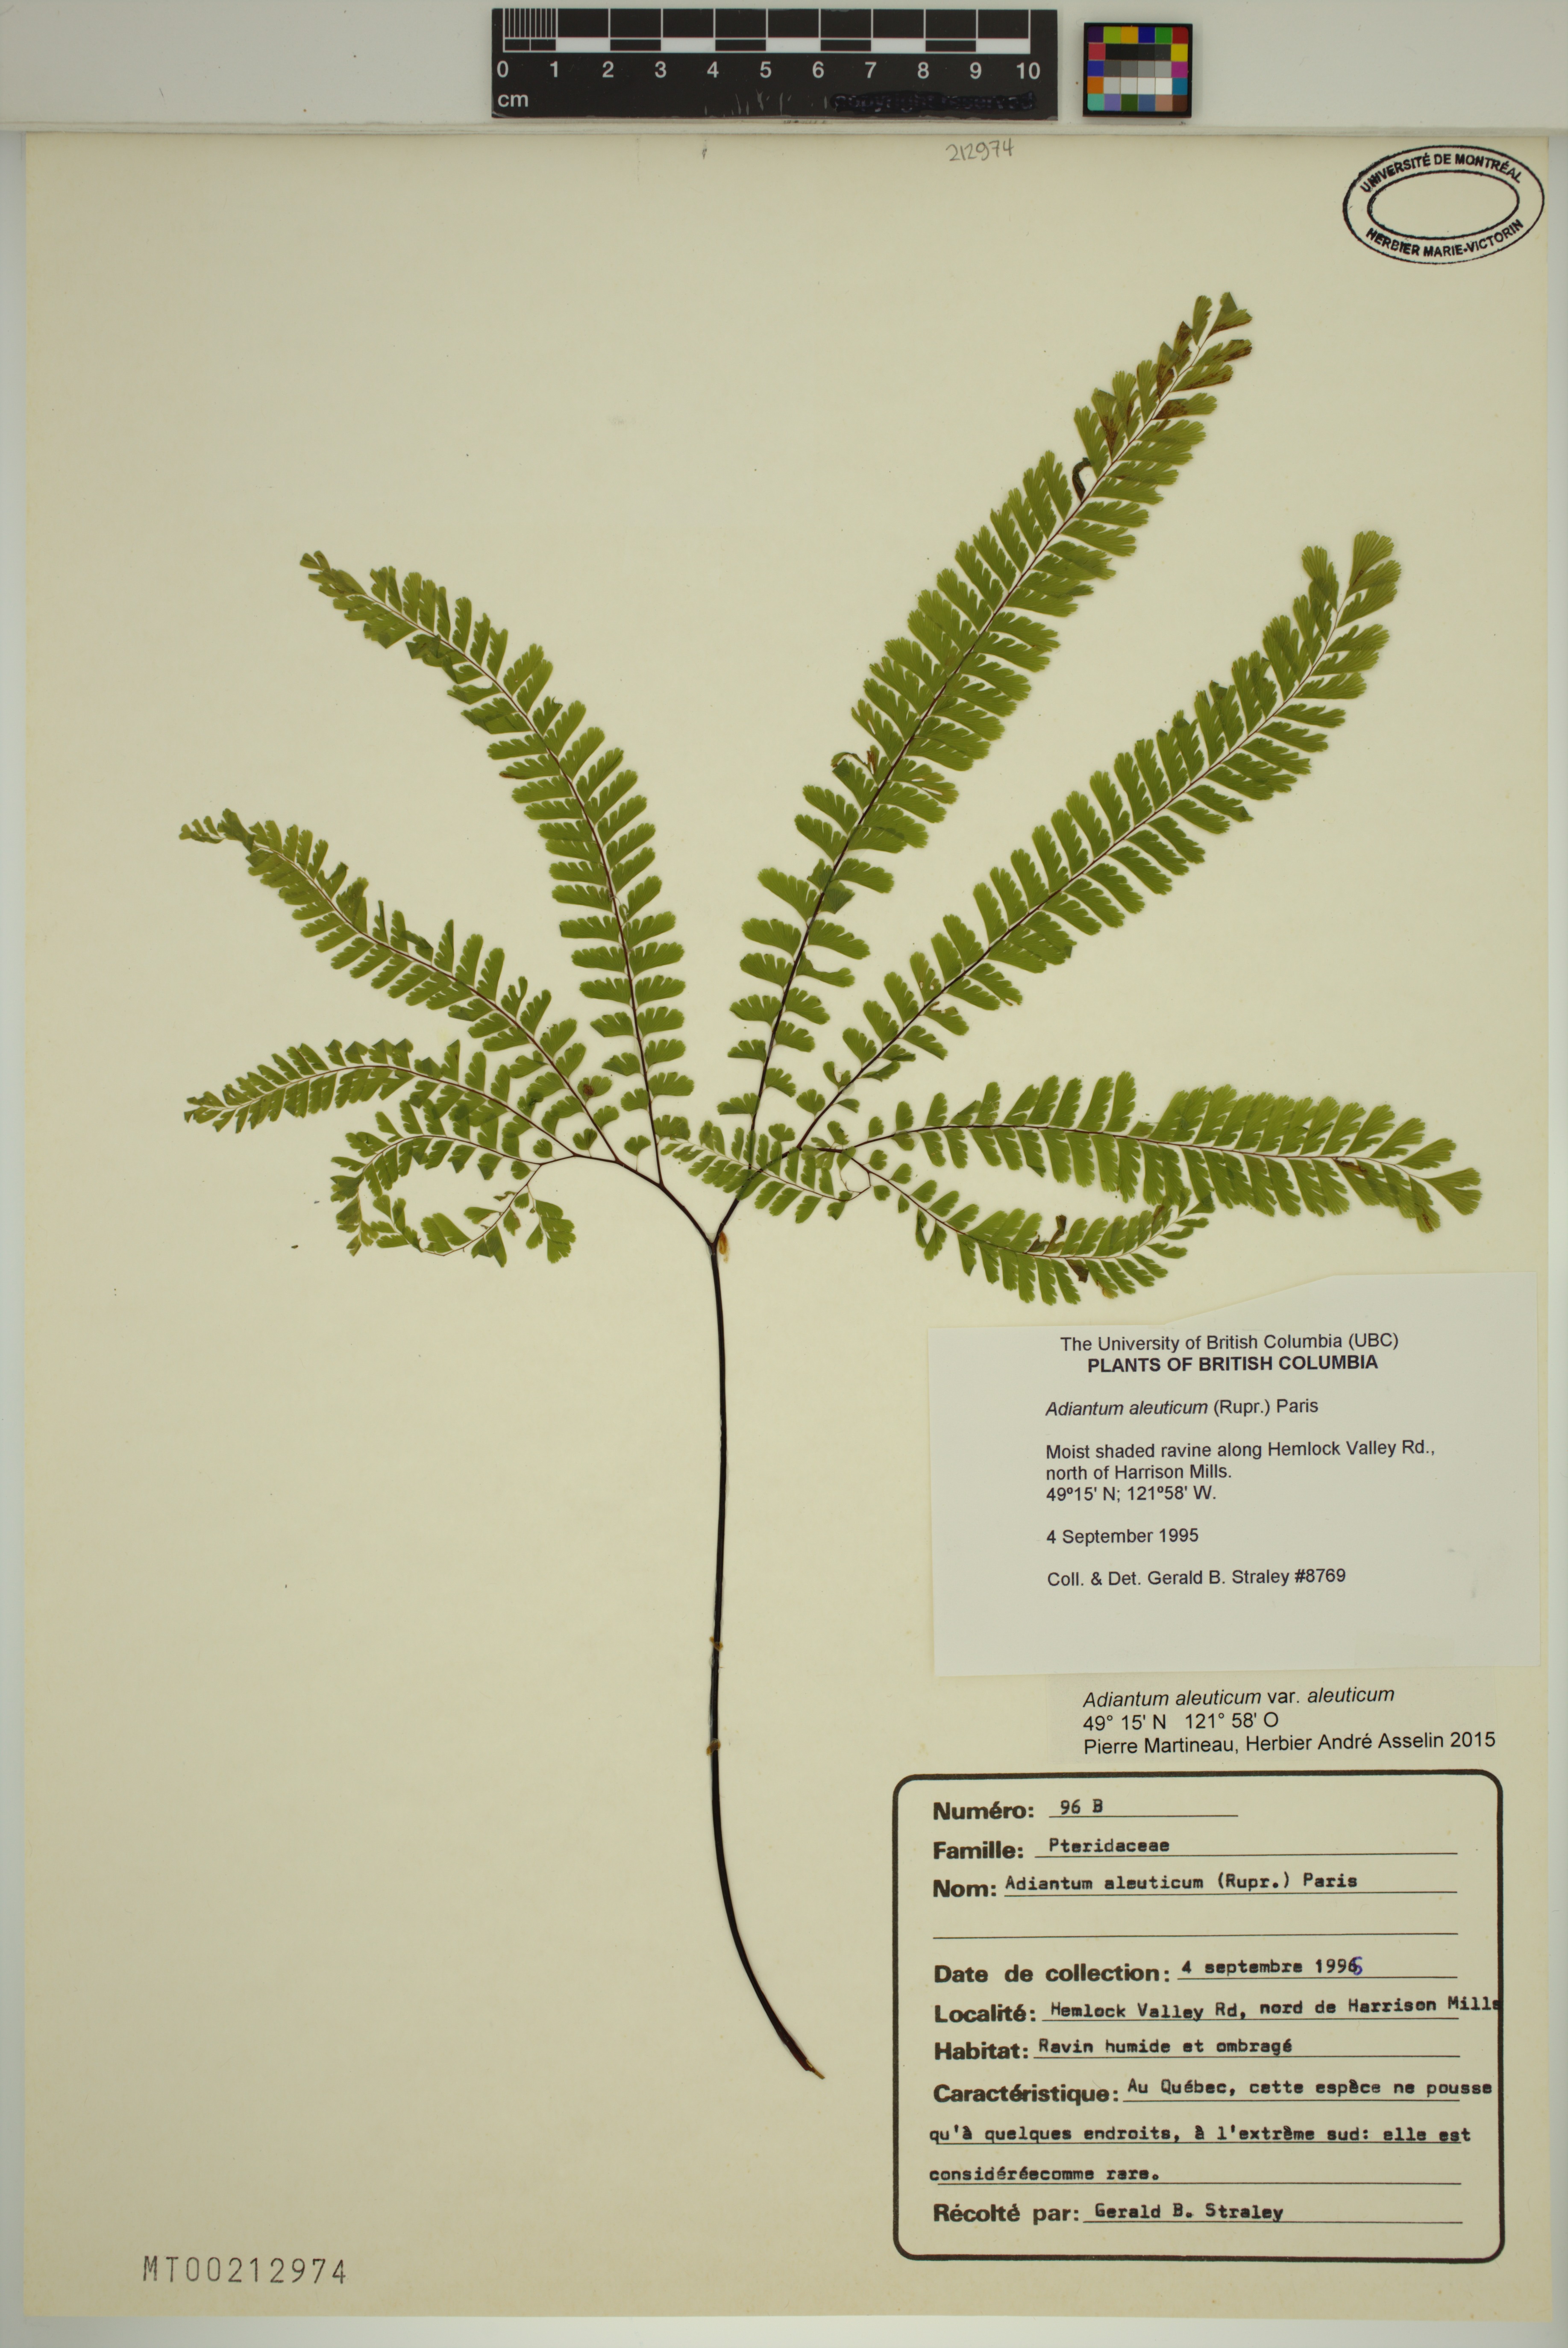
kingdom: Plantae
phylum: Tracheophyta
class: Polypodiopsida
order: Polypodiales
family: Pteridaceae
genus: Adiantum
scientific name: Adiantum aleuticum
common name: Aleutian maidenhair fern
